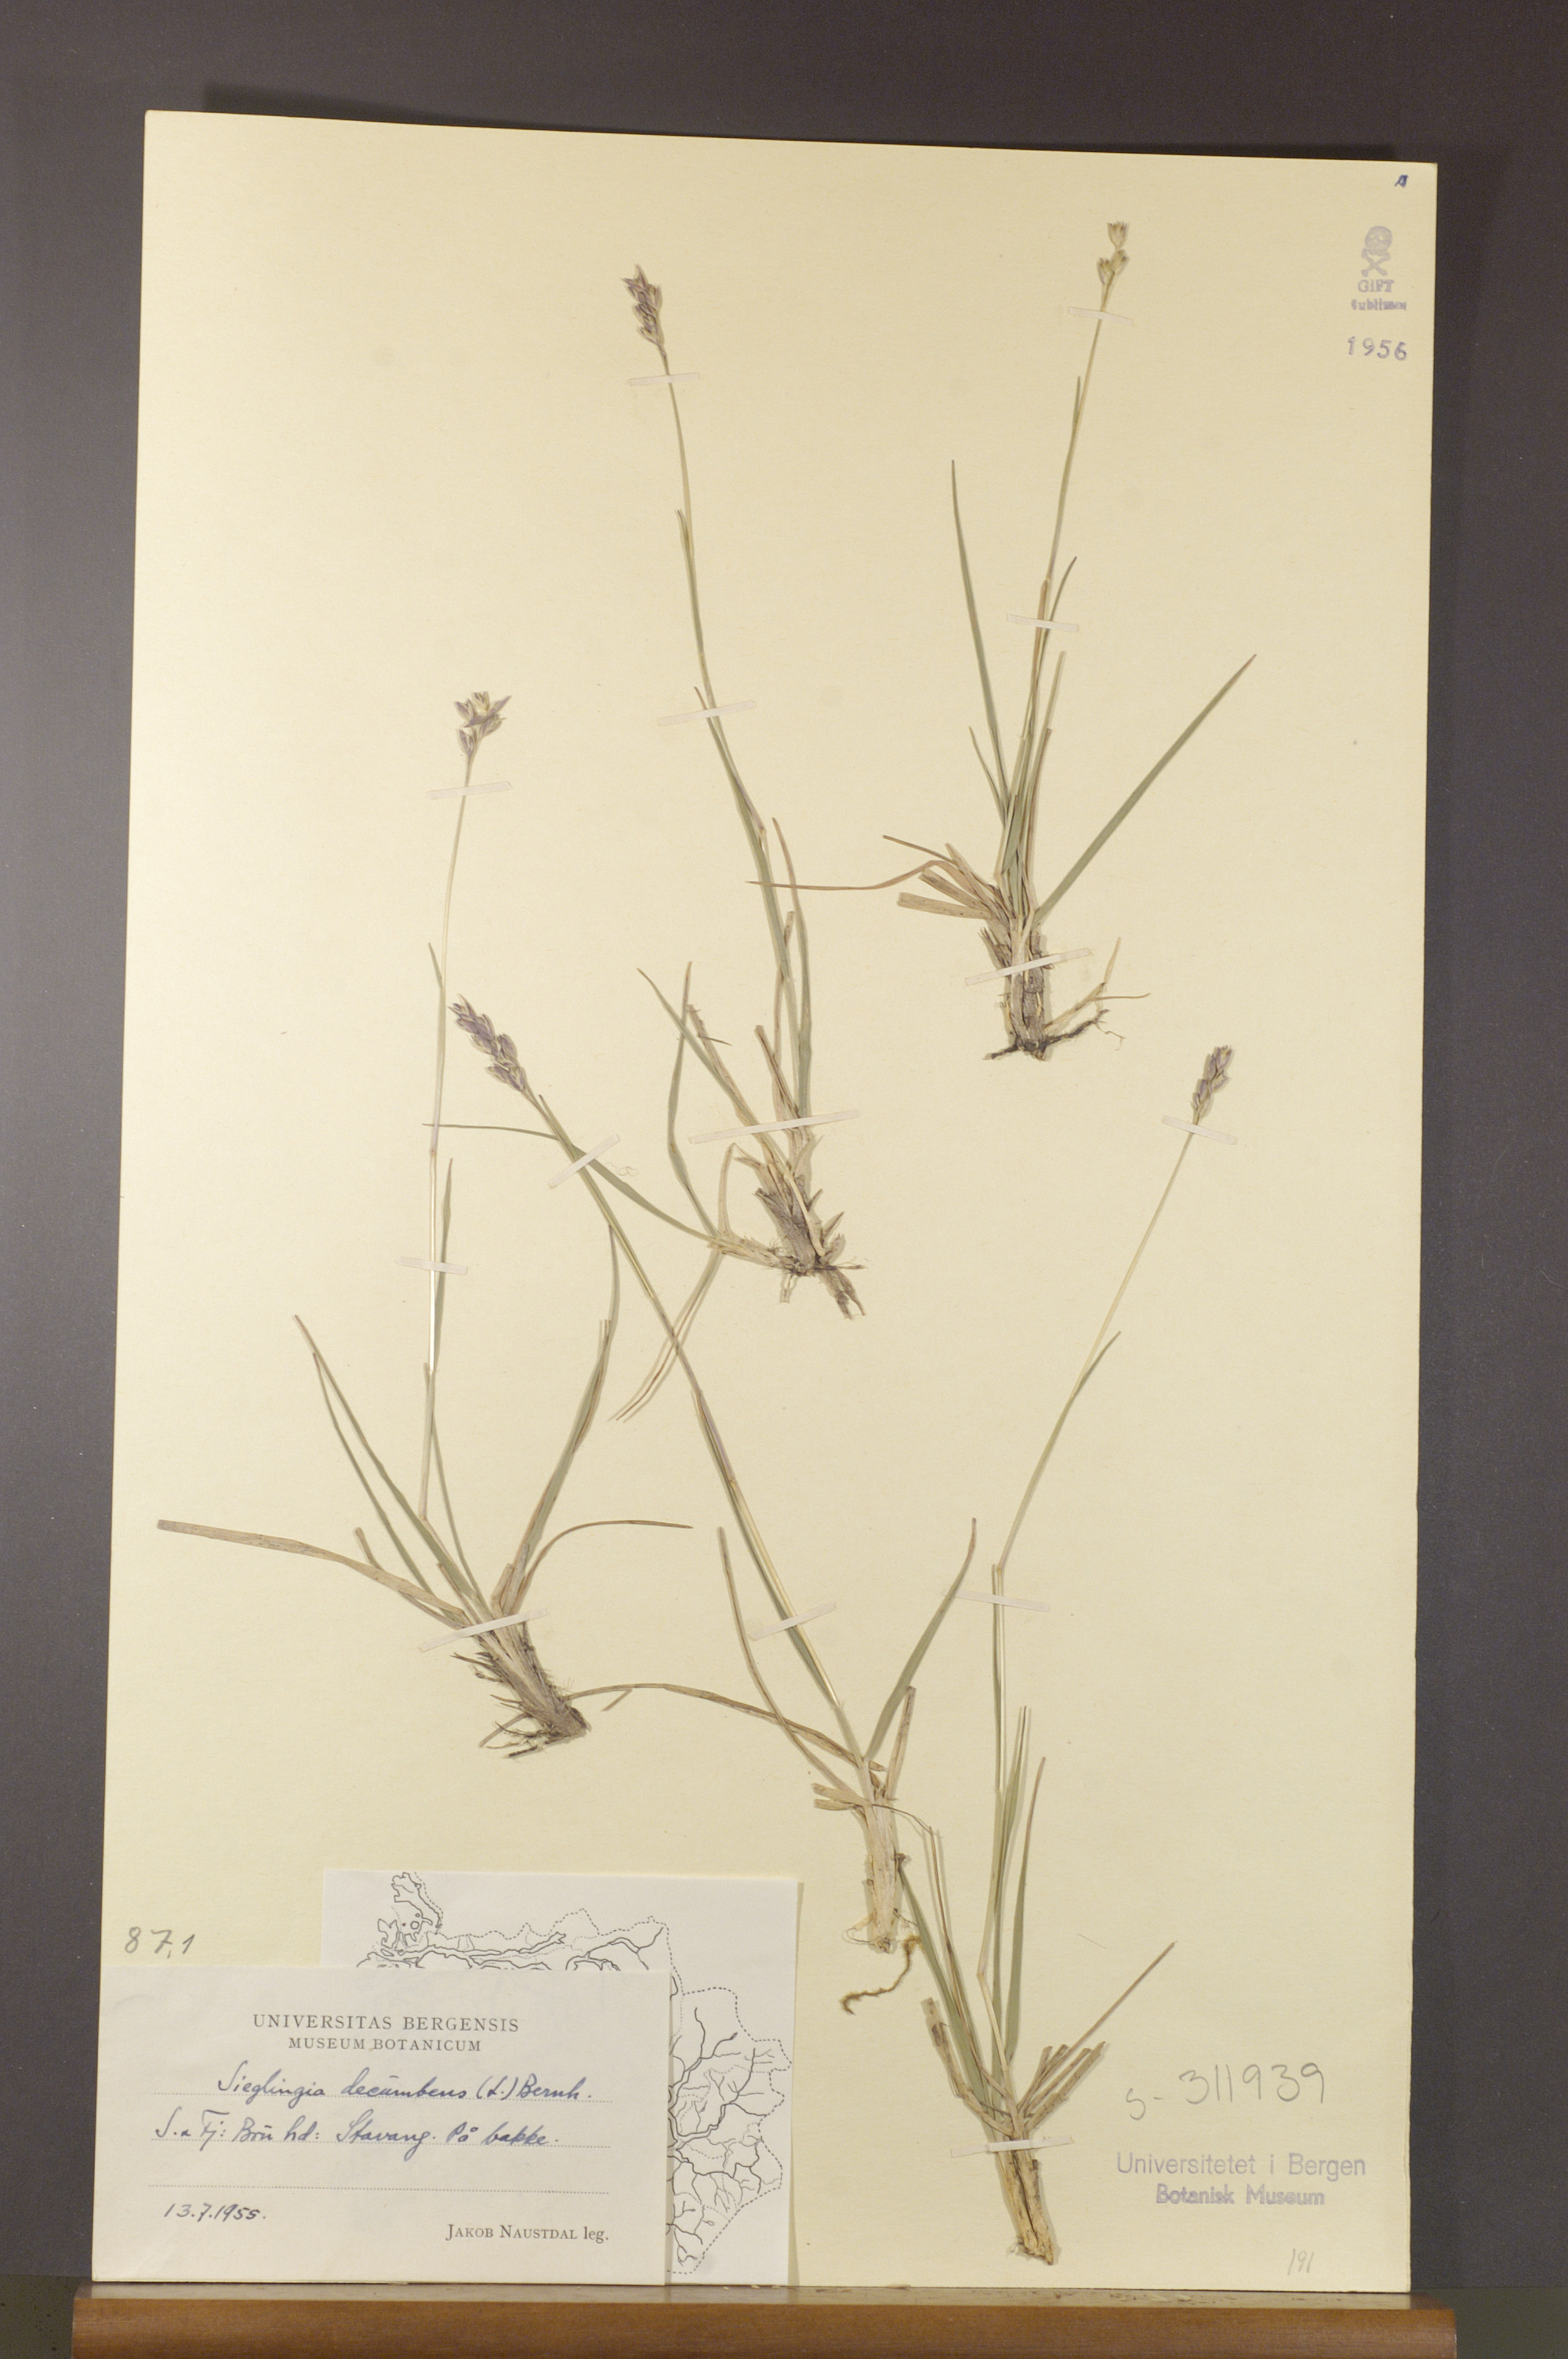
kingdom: Plantae
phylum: Tracheophyta
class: Liliopsida
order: Poales
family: Poaceae
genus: Danthonia
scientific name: Danthonia decumbens
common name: Common heathgrass
